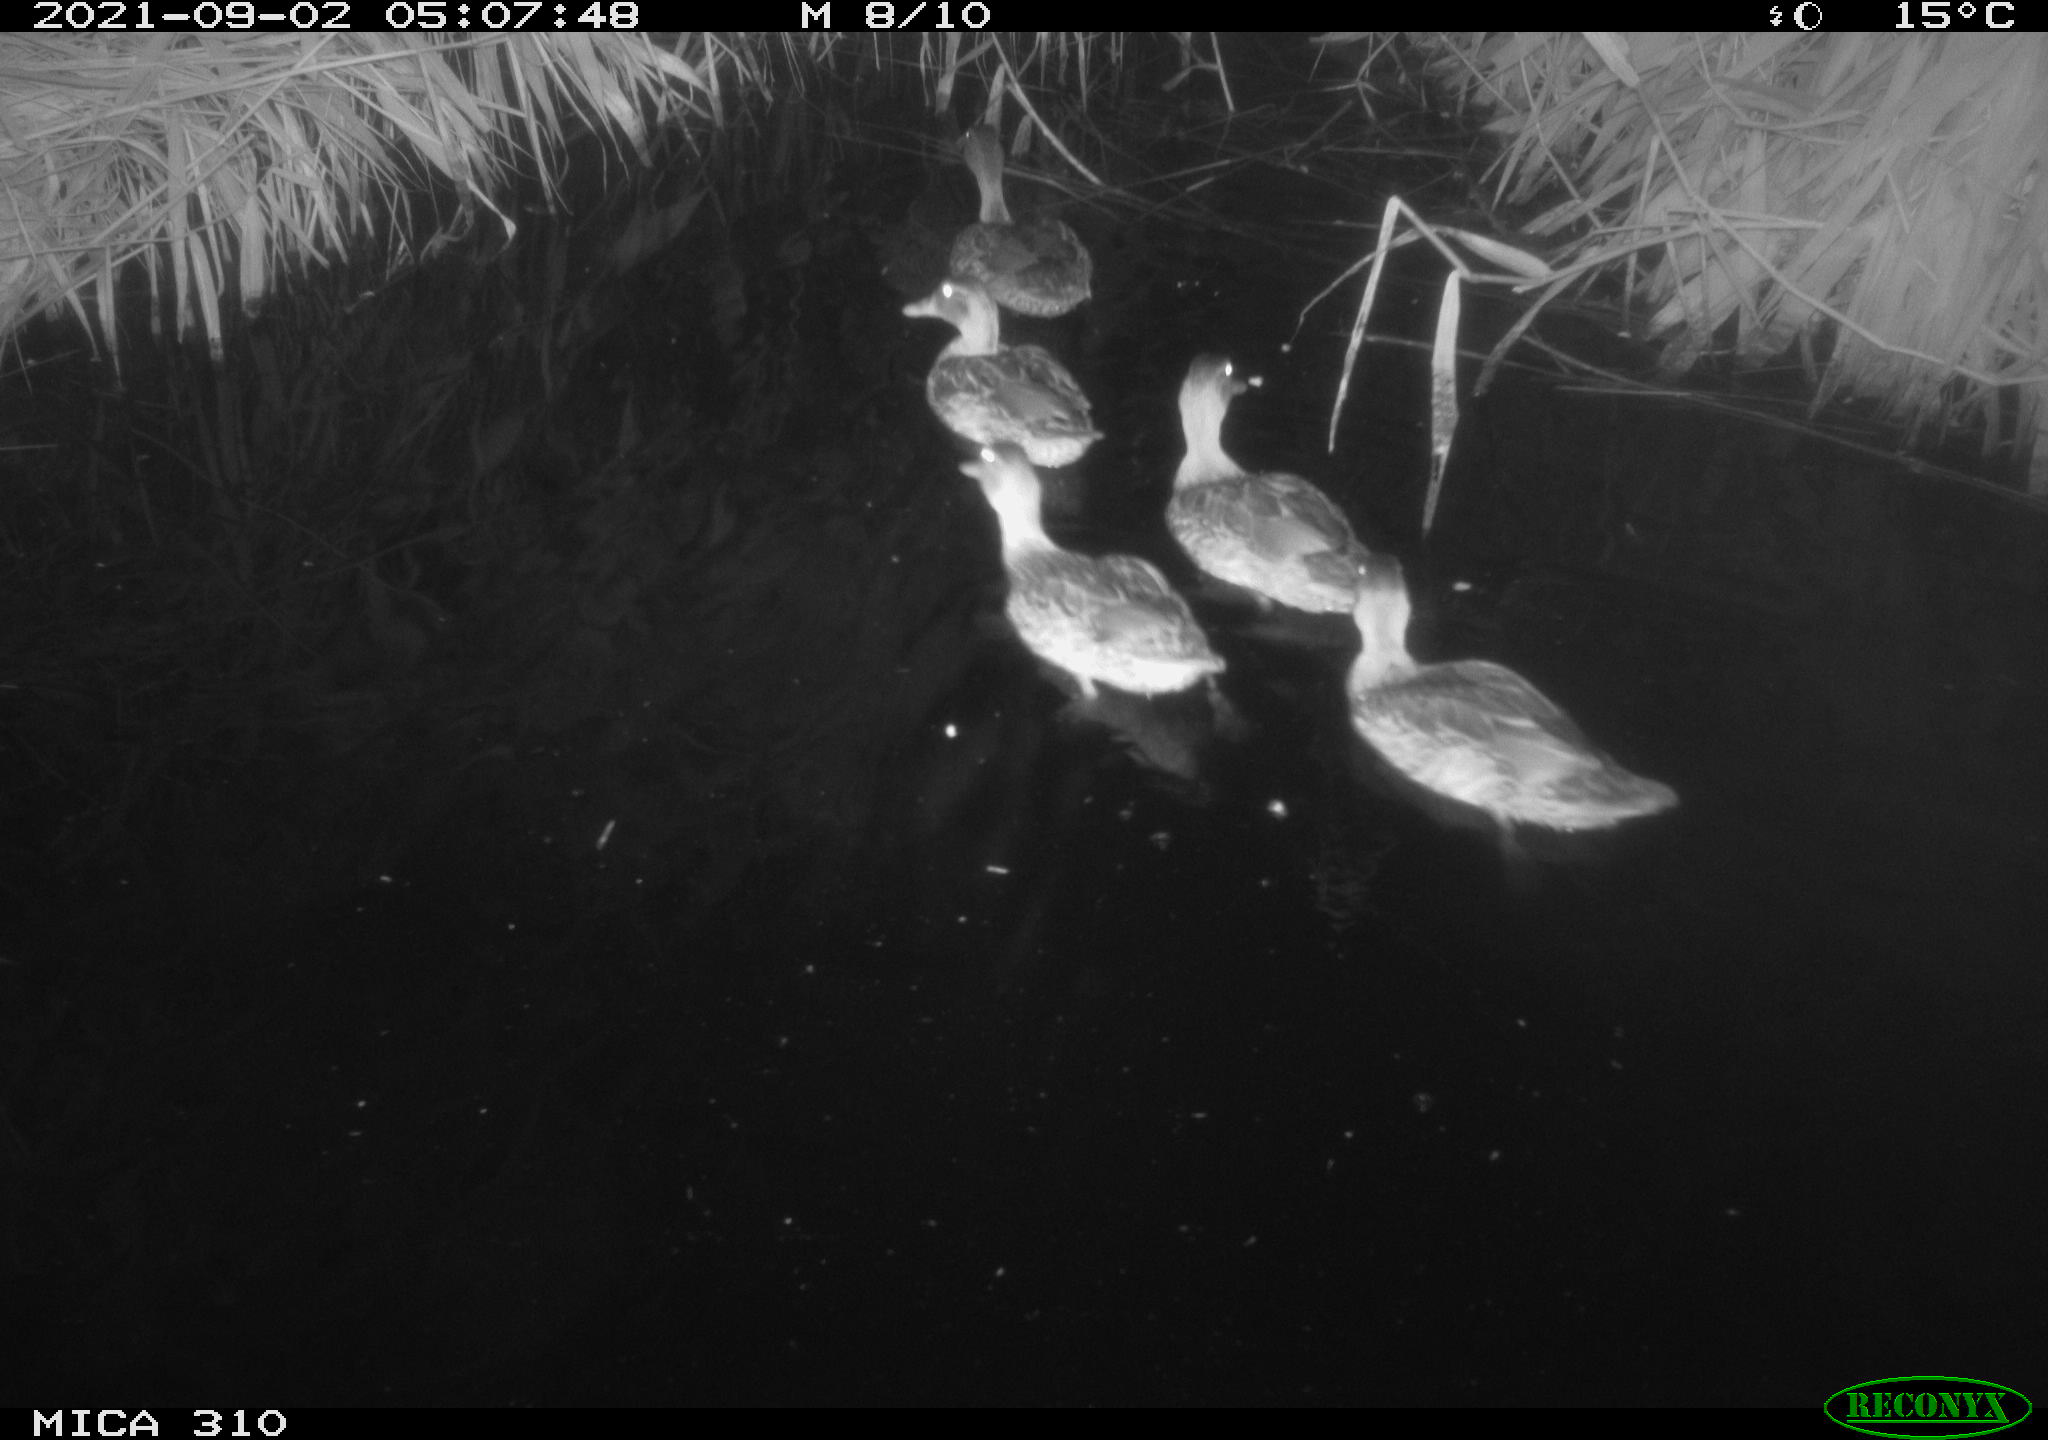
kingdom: Animalia
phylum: Chordata
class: Aves
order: Anseriformes
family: Anatidae
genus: Anas
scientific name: Anas platyrhynchos
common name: Mallard
